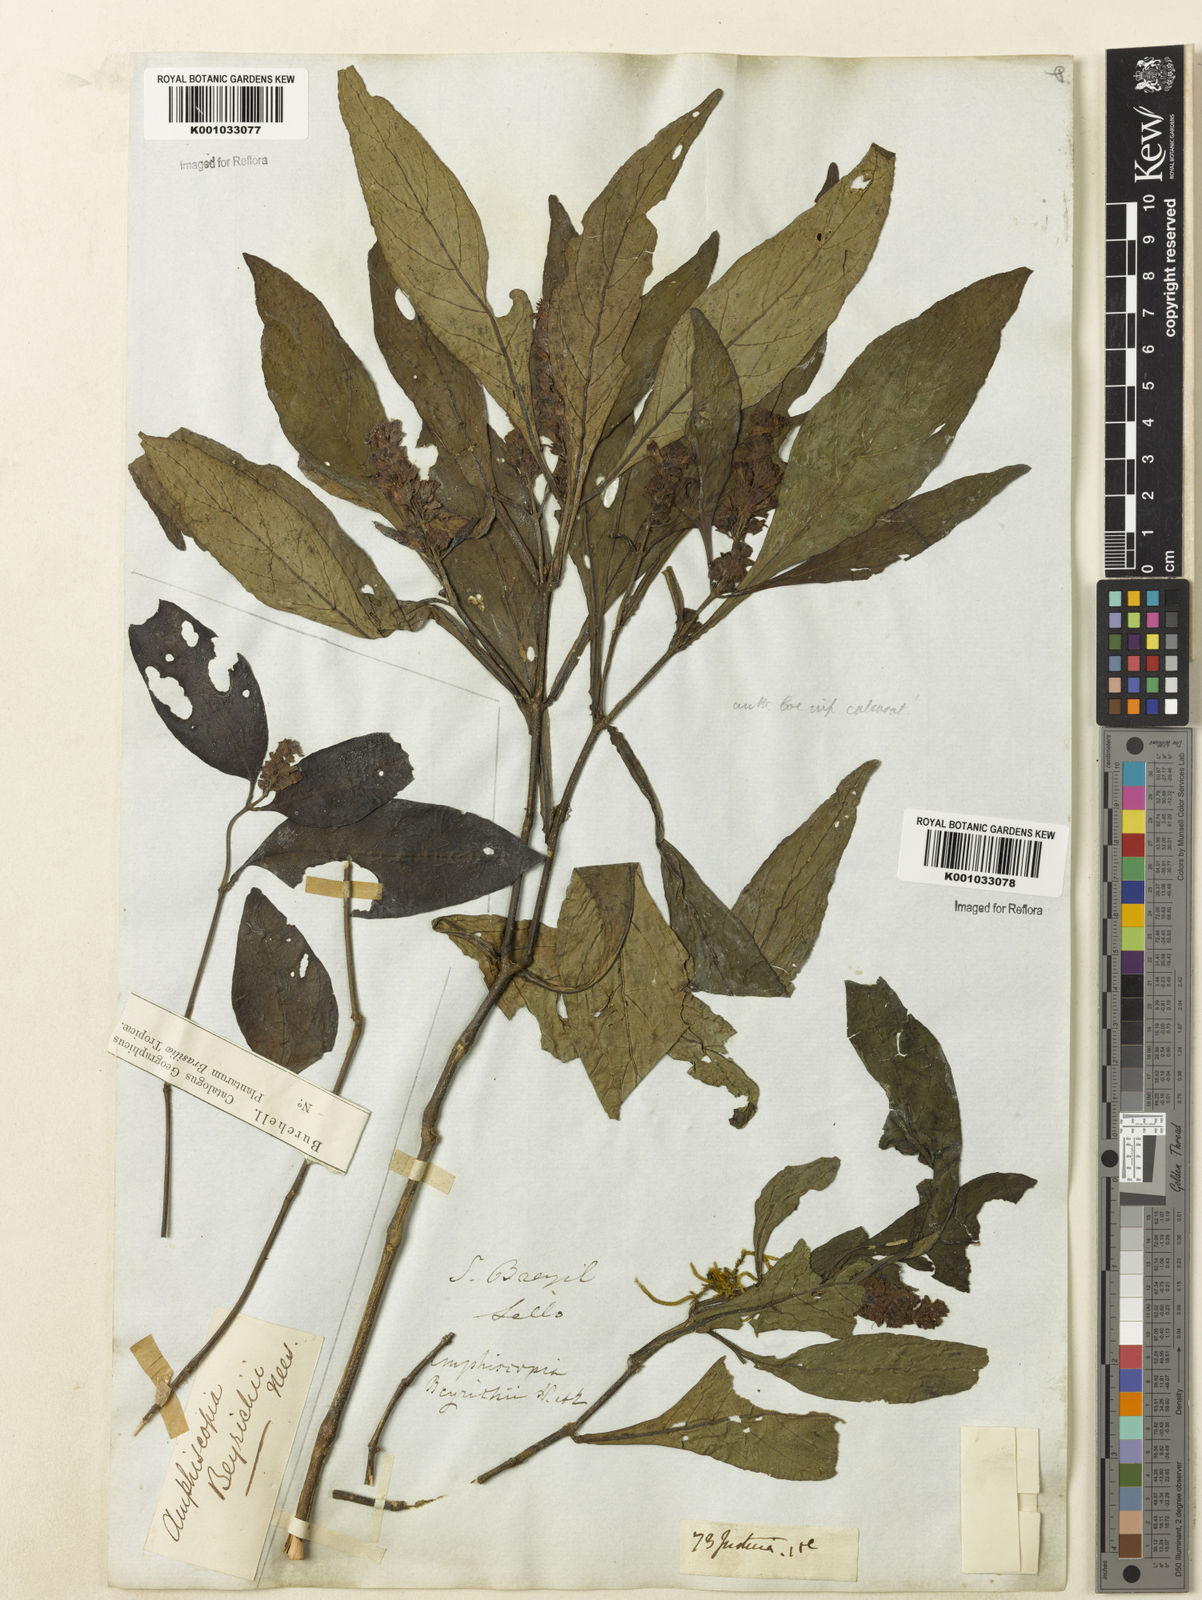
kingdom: Plantae
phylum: Tracheophyta
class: Magnoliopsida
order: Lamiales
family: Acanthaceae
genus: Dianthera
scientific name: Dianthera brasiliensis
